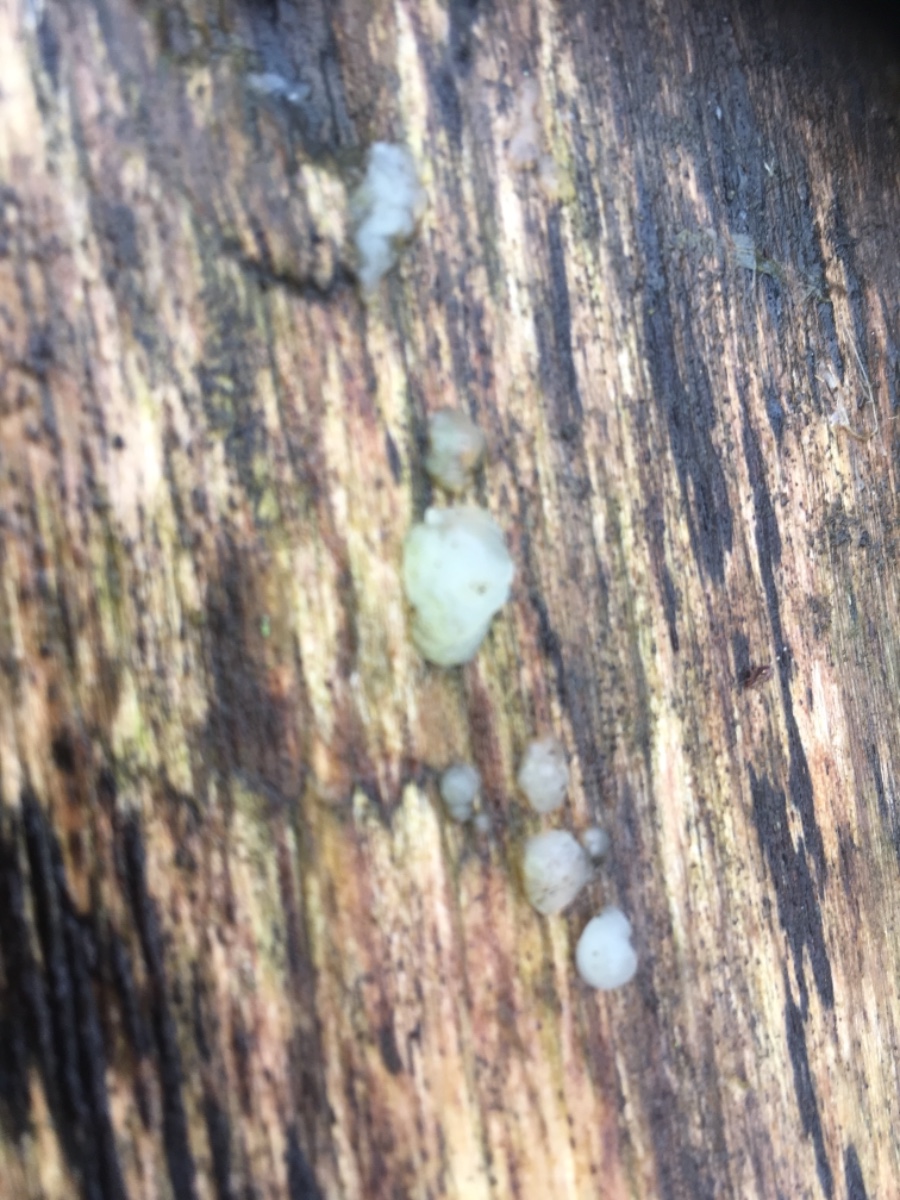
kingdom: Fungi
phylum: Basidiomycota
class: Tremellomycetes
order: Tremellales
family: Exidiaceae
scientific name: Exidiaceae
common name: bævretopfamilien
